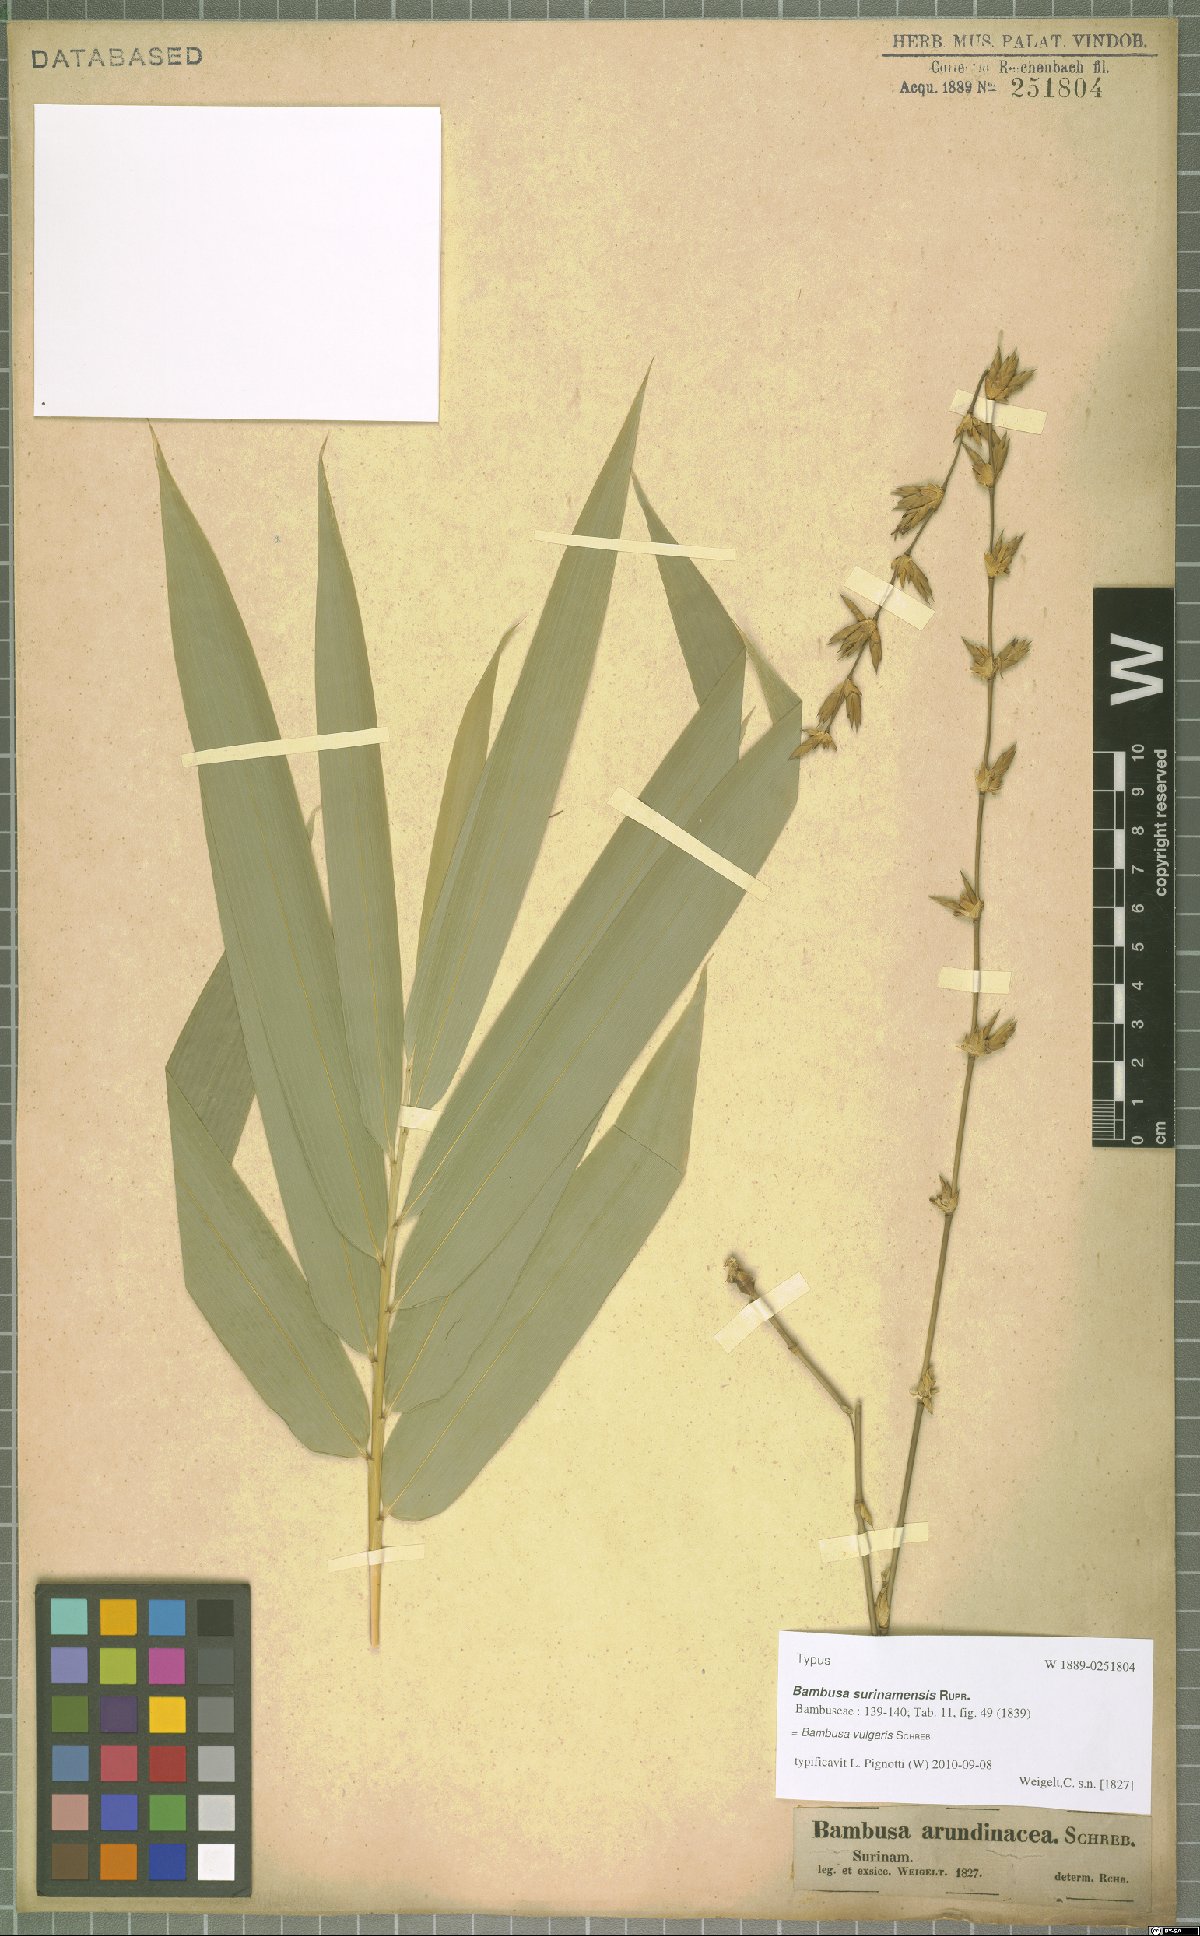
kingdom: Plantae
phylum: Tracheophyta
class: Liliopsida
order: Poales
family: Poaceae
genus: Bambusa
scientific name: Bambusa vulgaris
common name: Common bamboo
